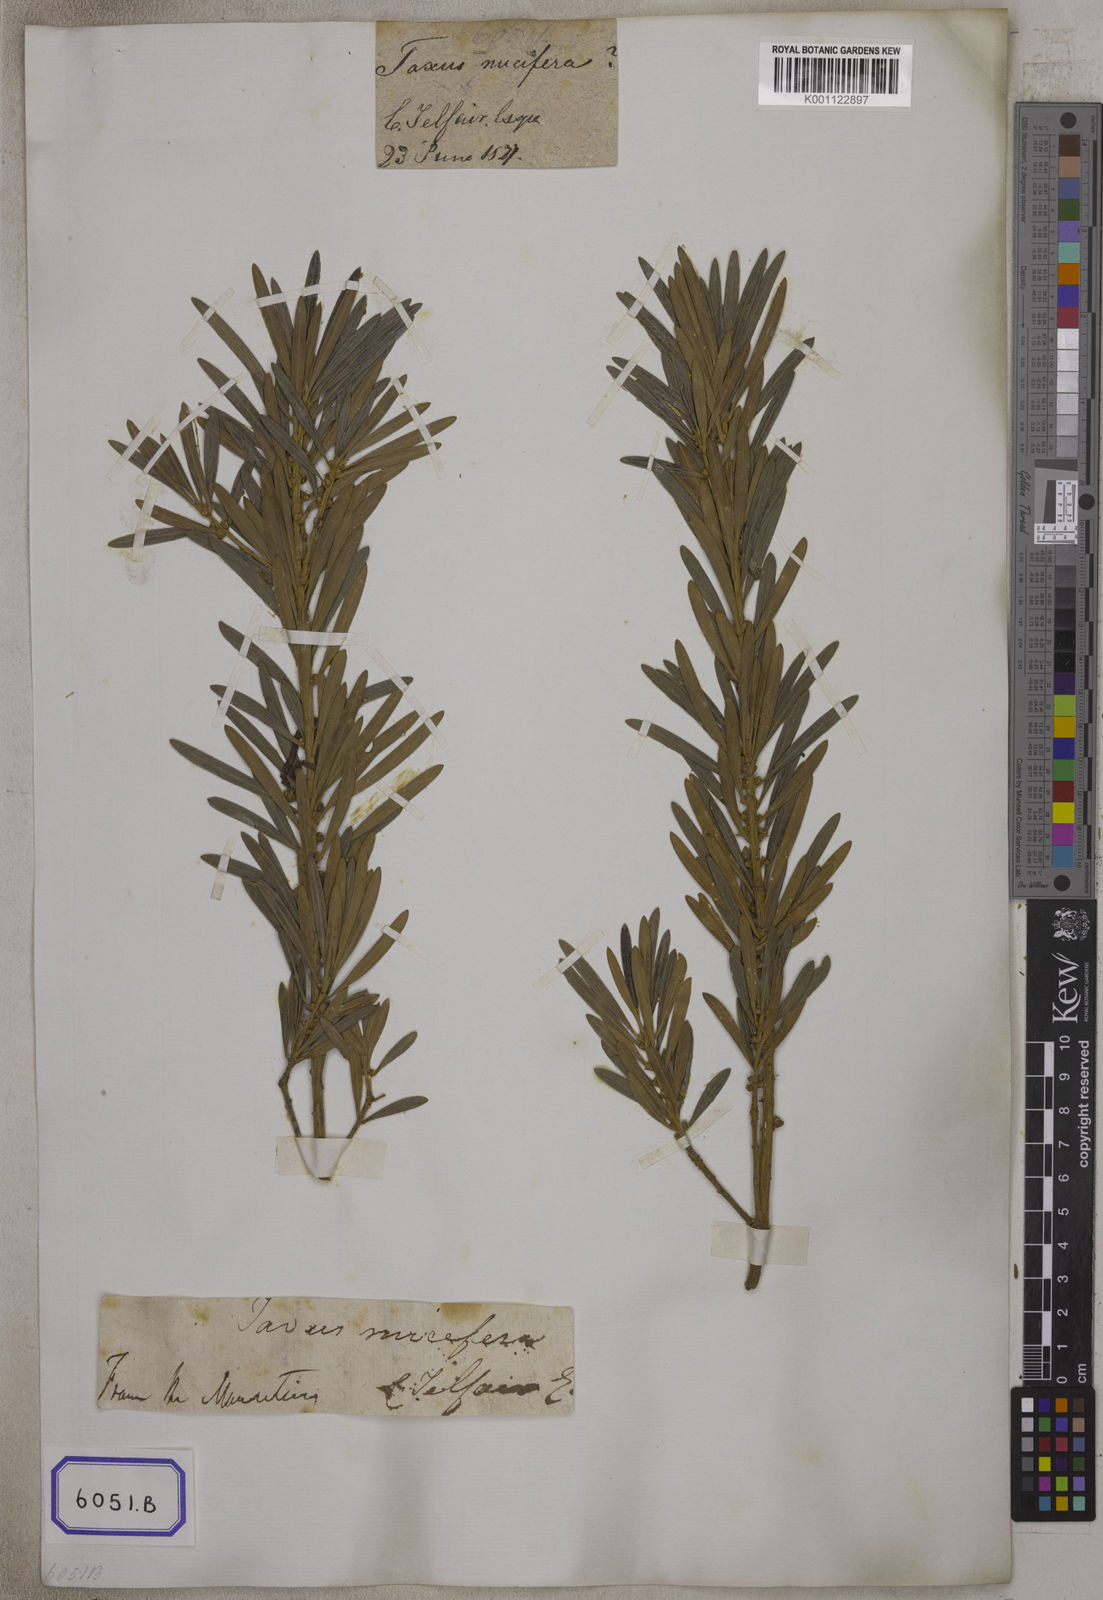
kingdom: Plantae
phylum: Tracheophyta
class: Pinopsida
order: Pinales
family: Podocarpaceae
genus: Podocarpus
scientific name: Podocarpus
